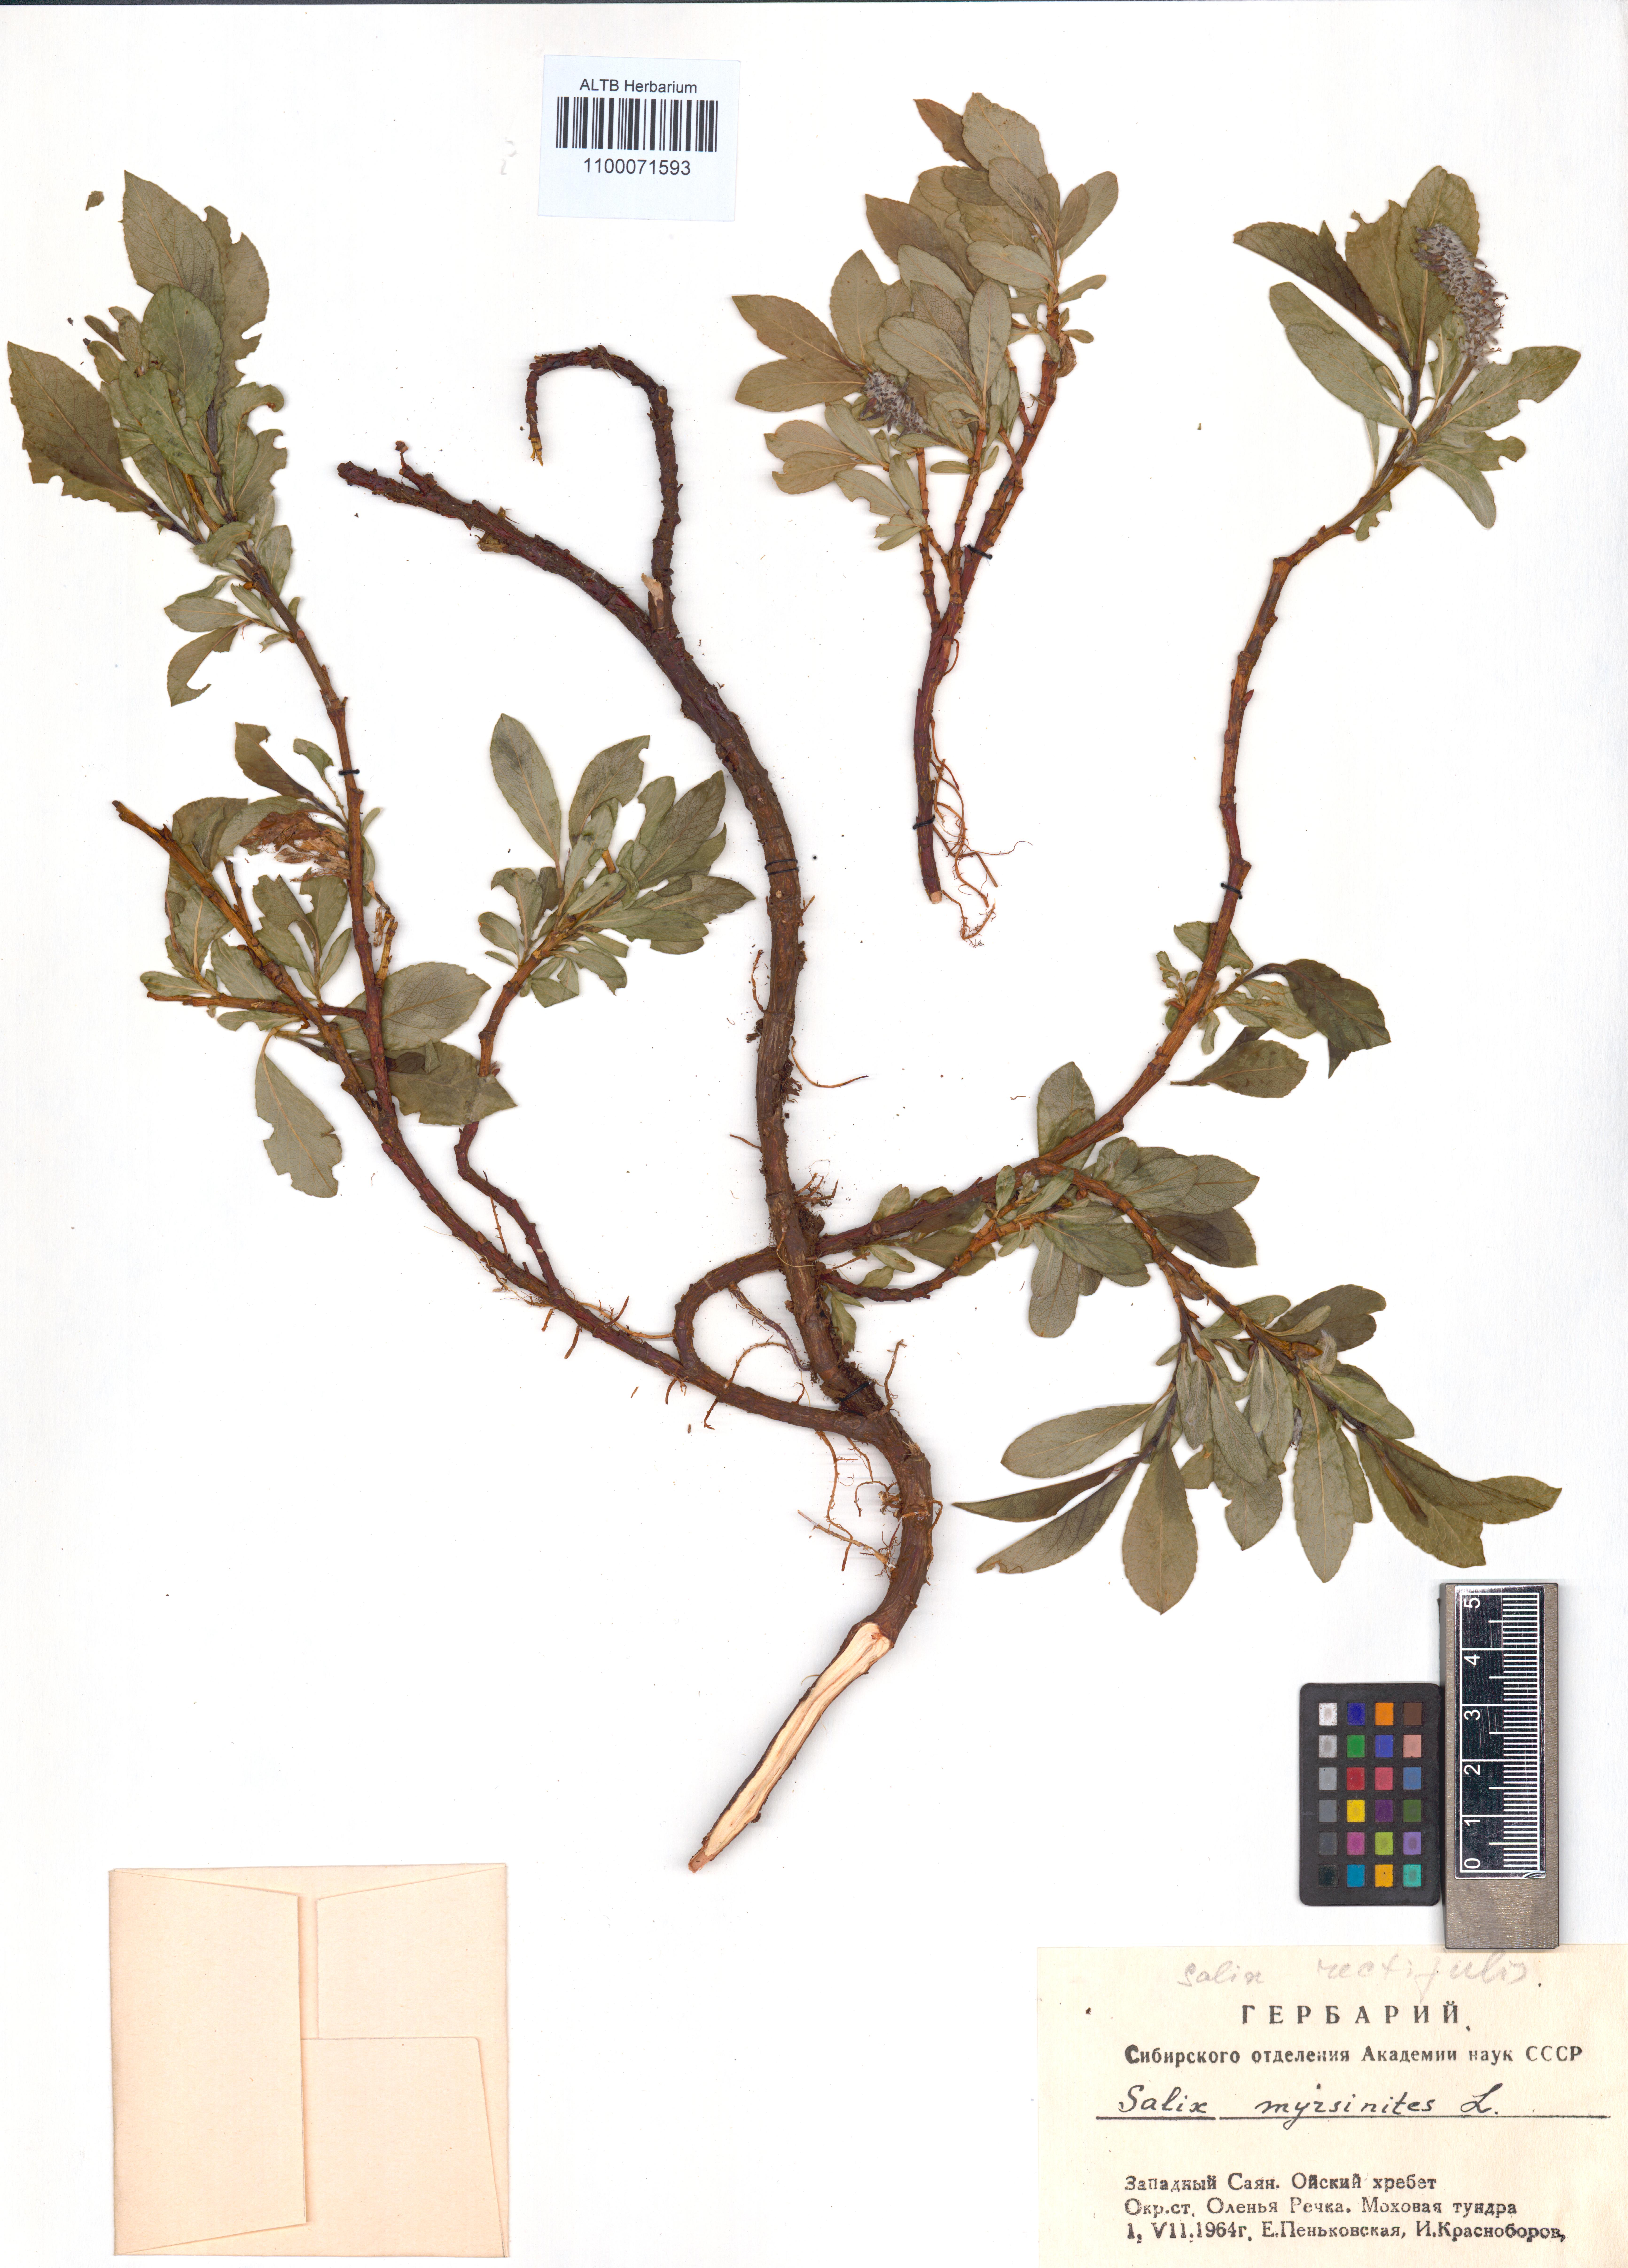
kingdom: Plantae
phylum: Tracheophyta
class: Magnoliopsida
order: Malpighiales
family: Salicaceae
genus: Salix
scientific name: Salix myrsinites
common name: Myrtle willow
